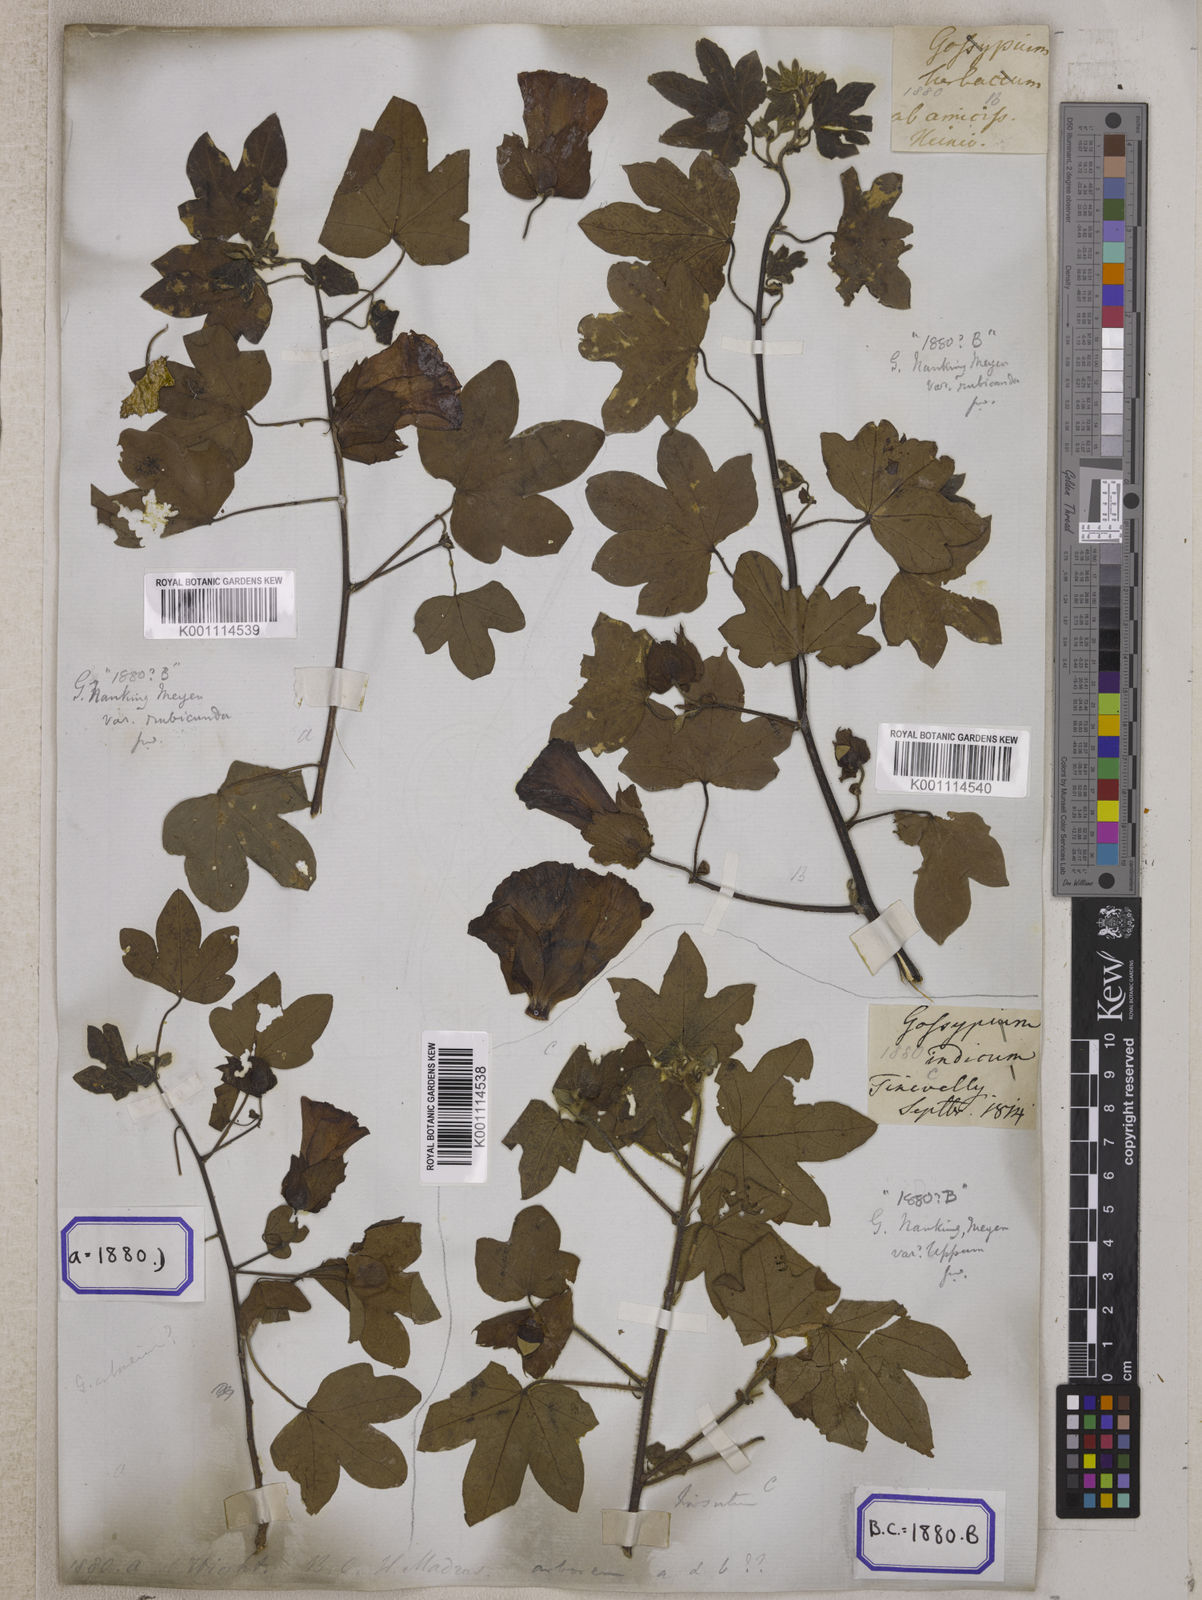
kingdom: Plantae
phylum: Tracheophyta
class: Magnoliopsida
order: Malvales
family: Malvaceae
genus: Gossypium
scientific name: Gossypium herbaceum
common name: Levant cotton
